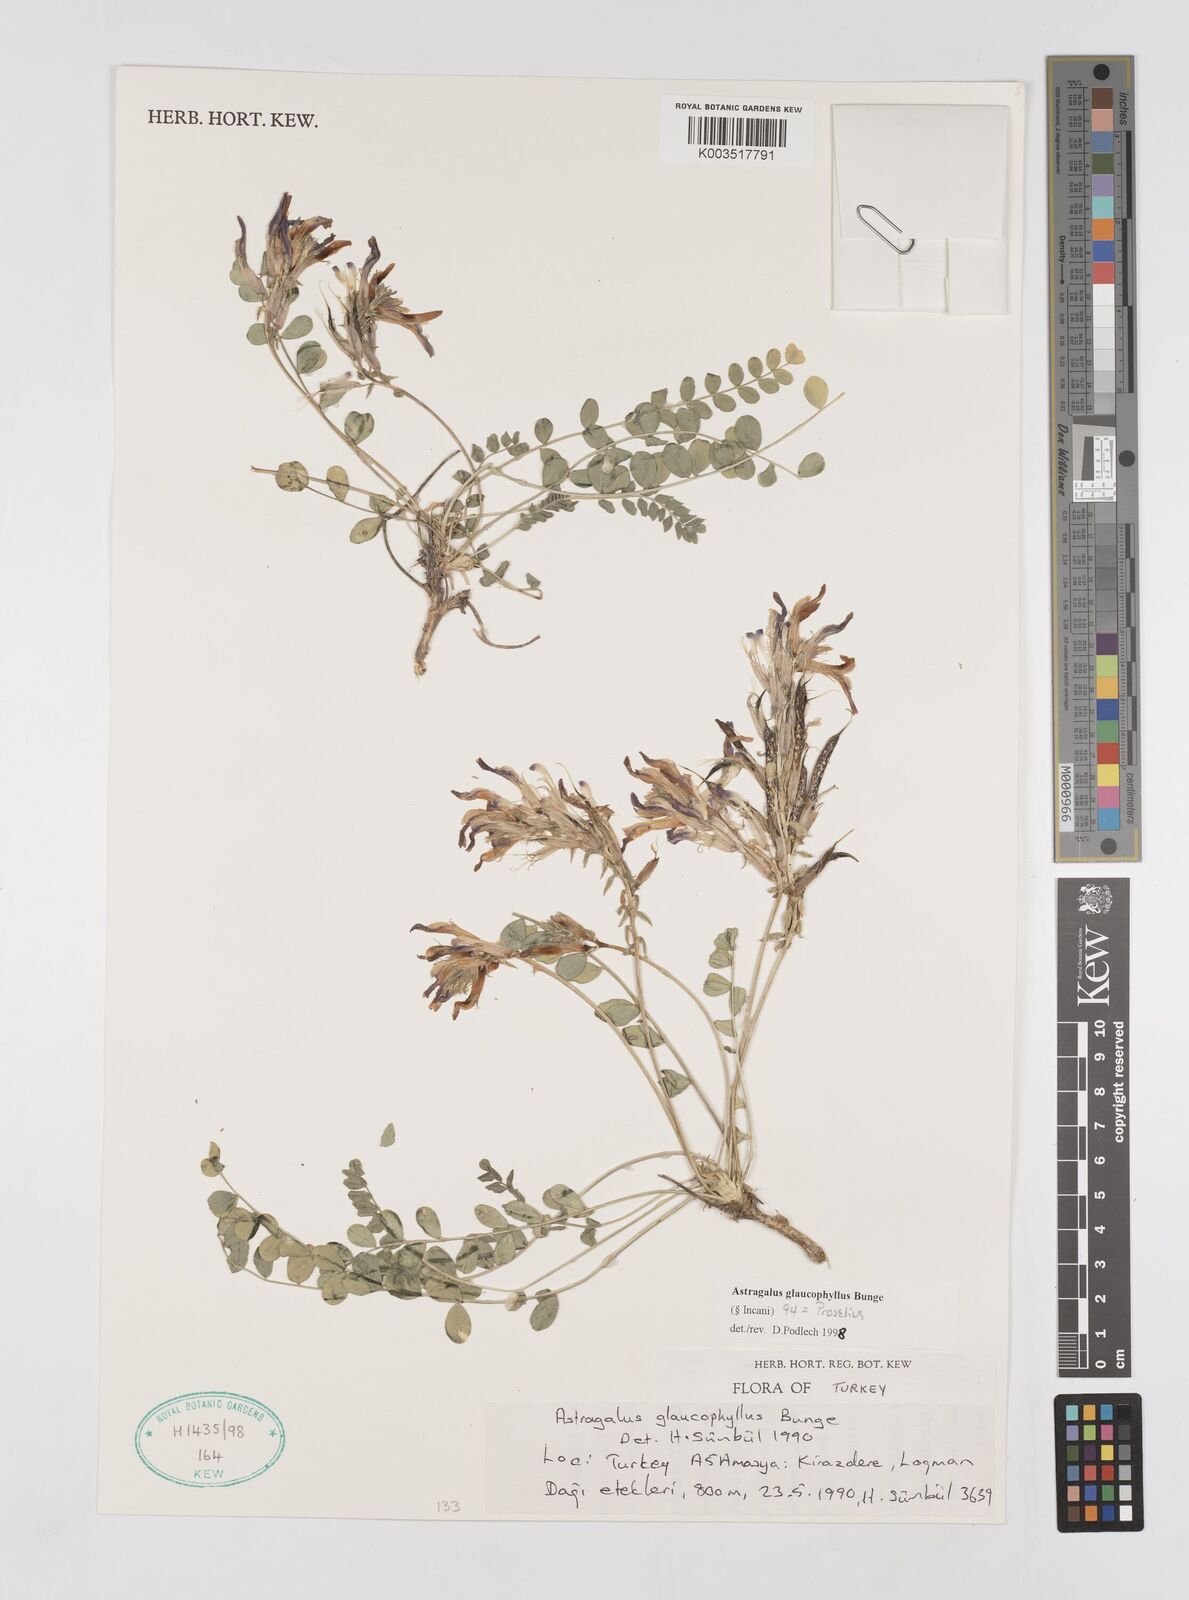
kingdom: Plantae
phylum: Tracheophyta
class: Magnoliopsida
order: Fabales
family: Fabaceae
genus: Astragalus
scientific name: Astragalus glaucophyllus
